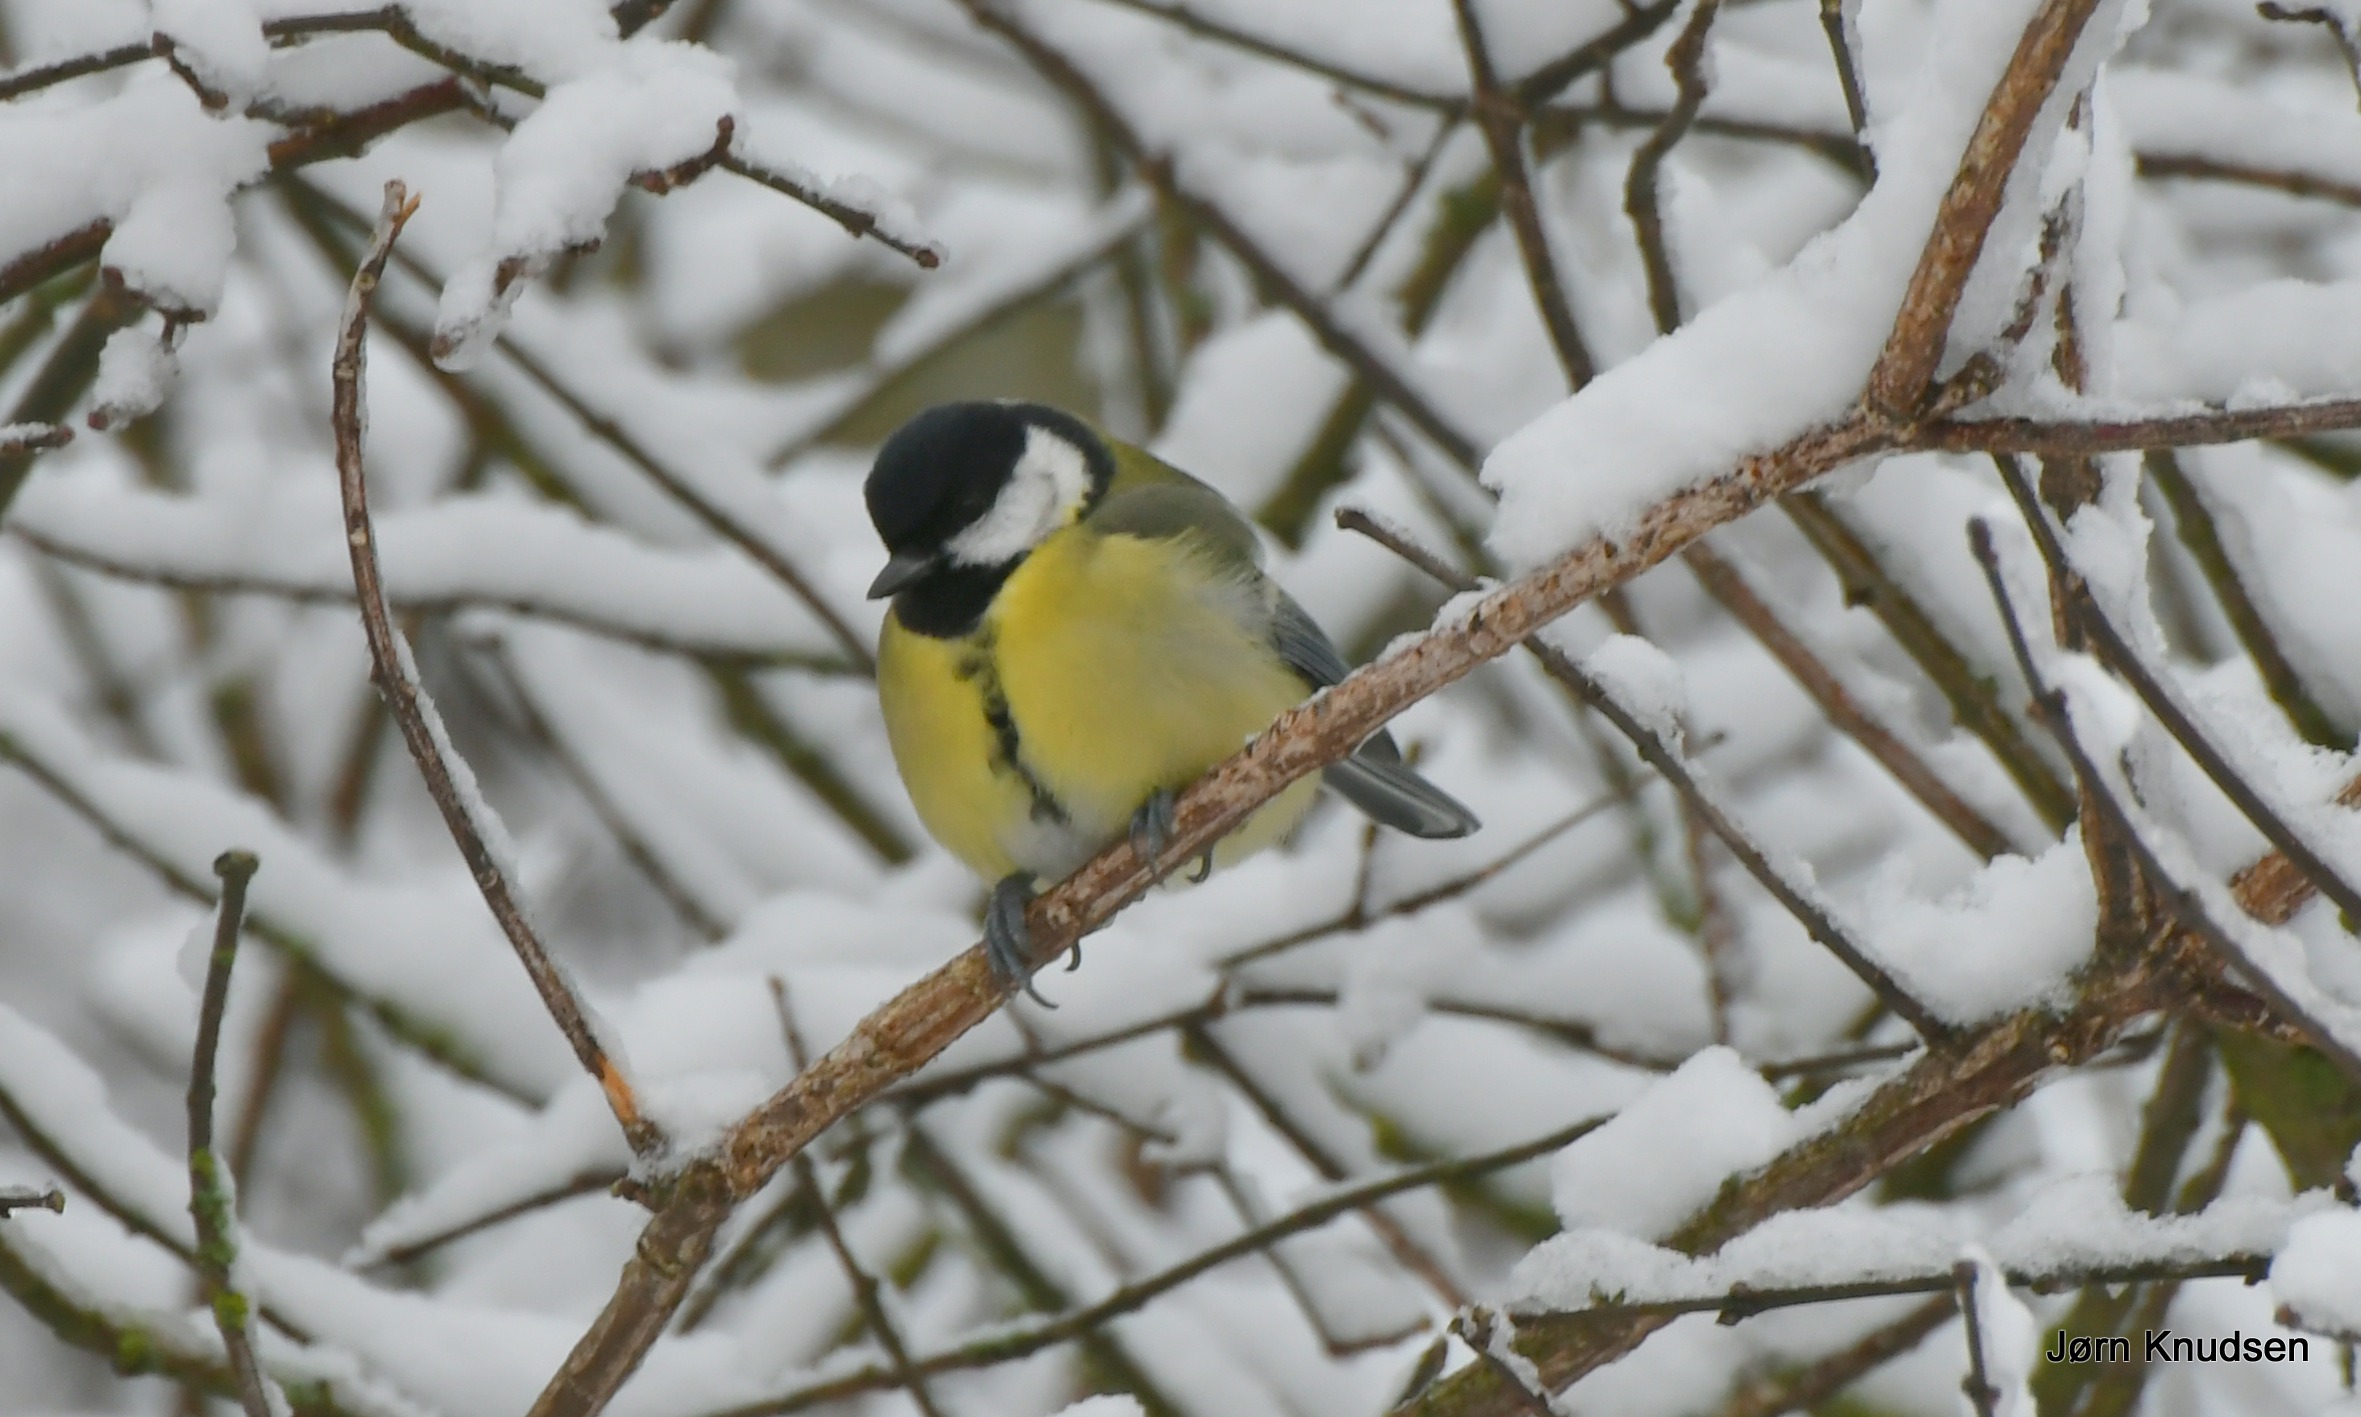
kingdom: Animalia
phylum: Chordata
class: Aves
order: Passeriformes
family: Paridae
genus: Parus
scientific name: Parus major
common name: Musvit
